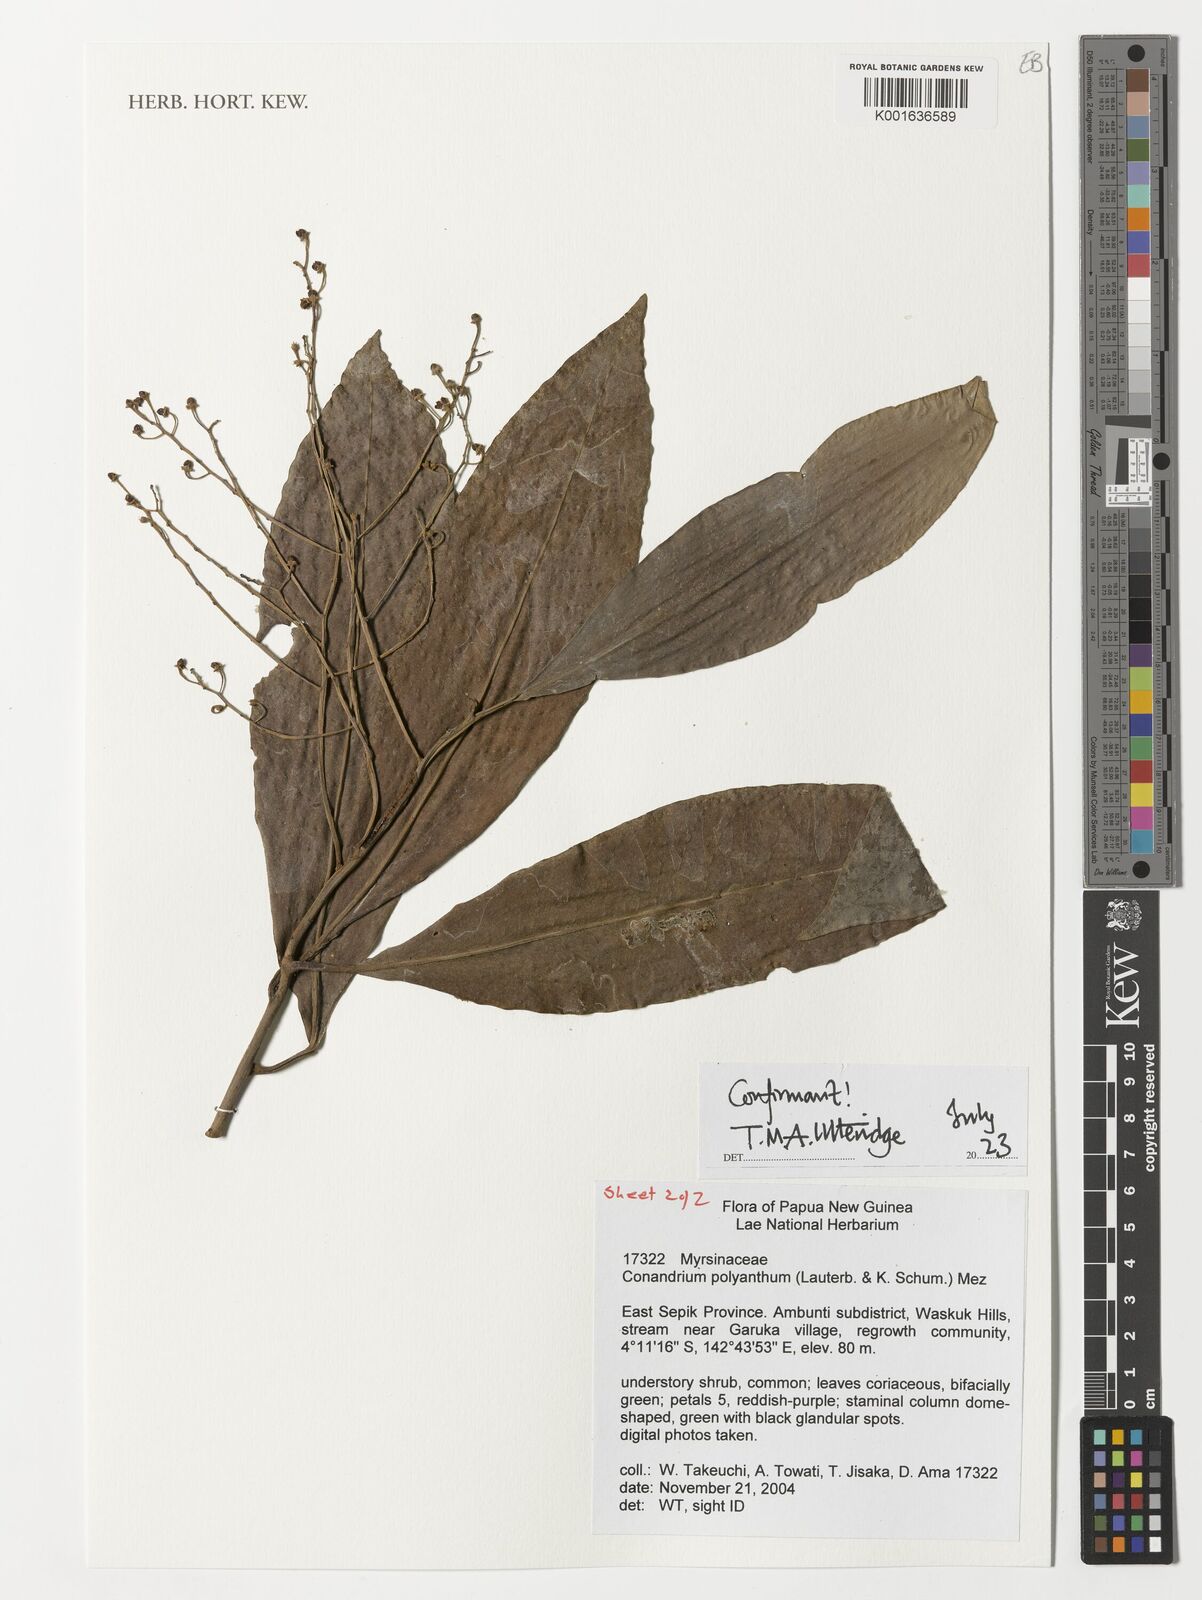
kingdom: Plantae
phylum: Tracheophyta
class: Magnoliopsida
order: Ericales
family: Primulaceae
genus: Conandrium
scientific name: Conandrium polyanthum
